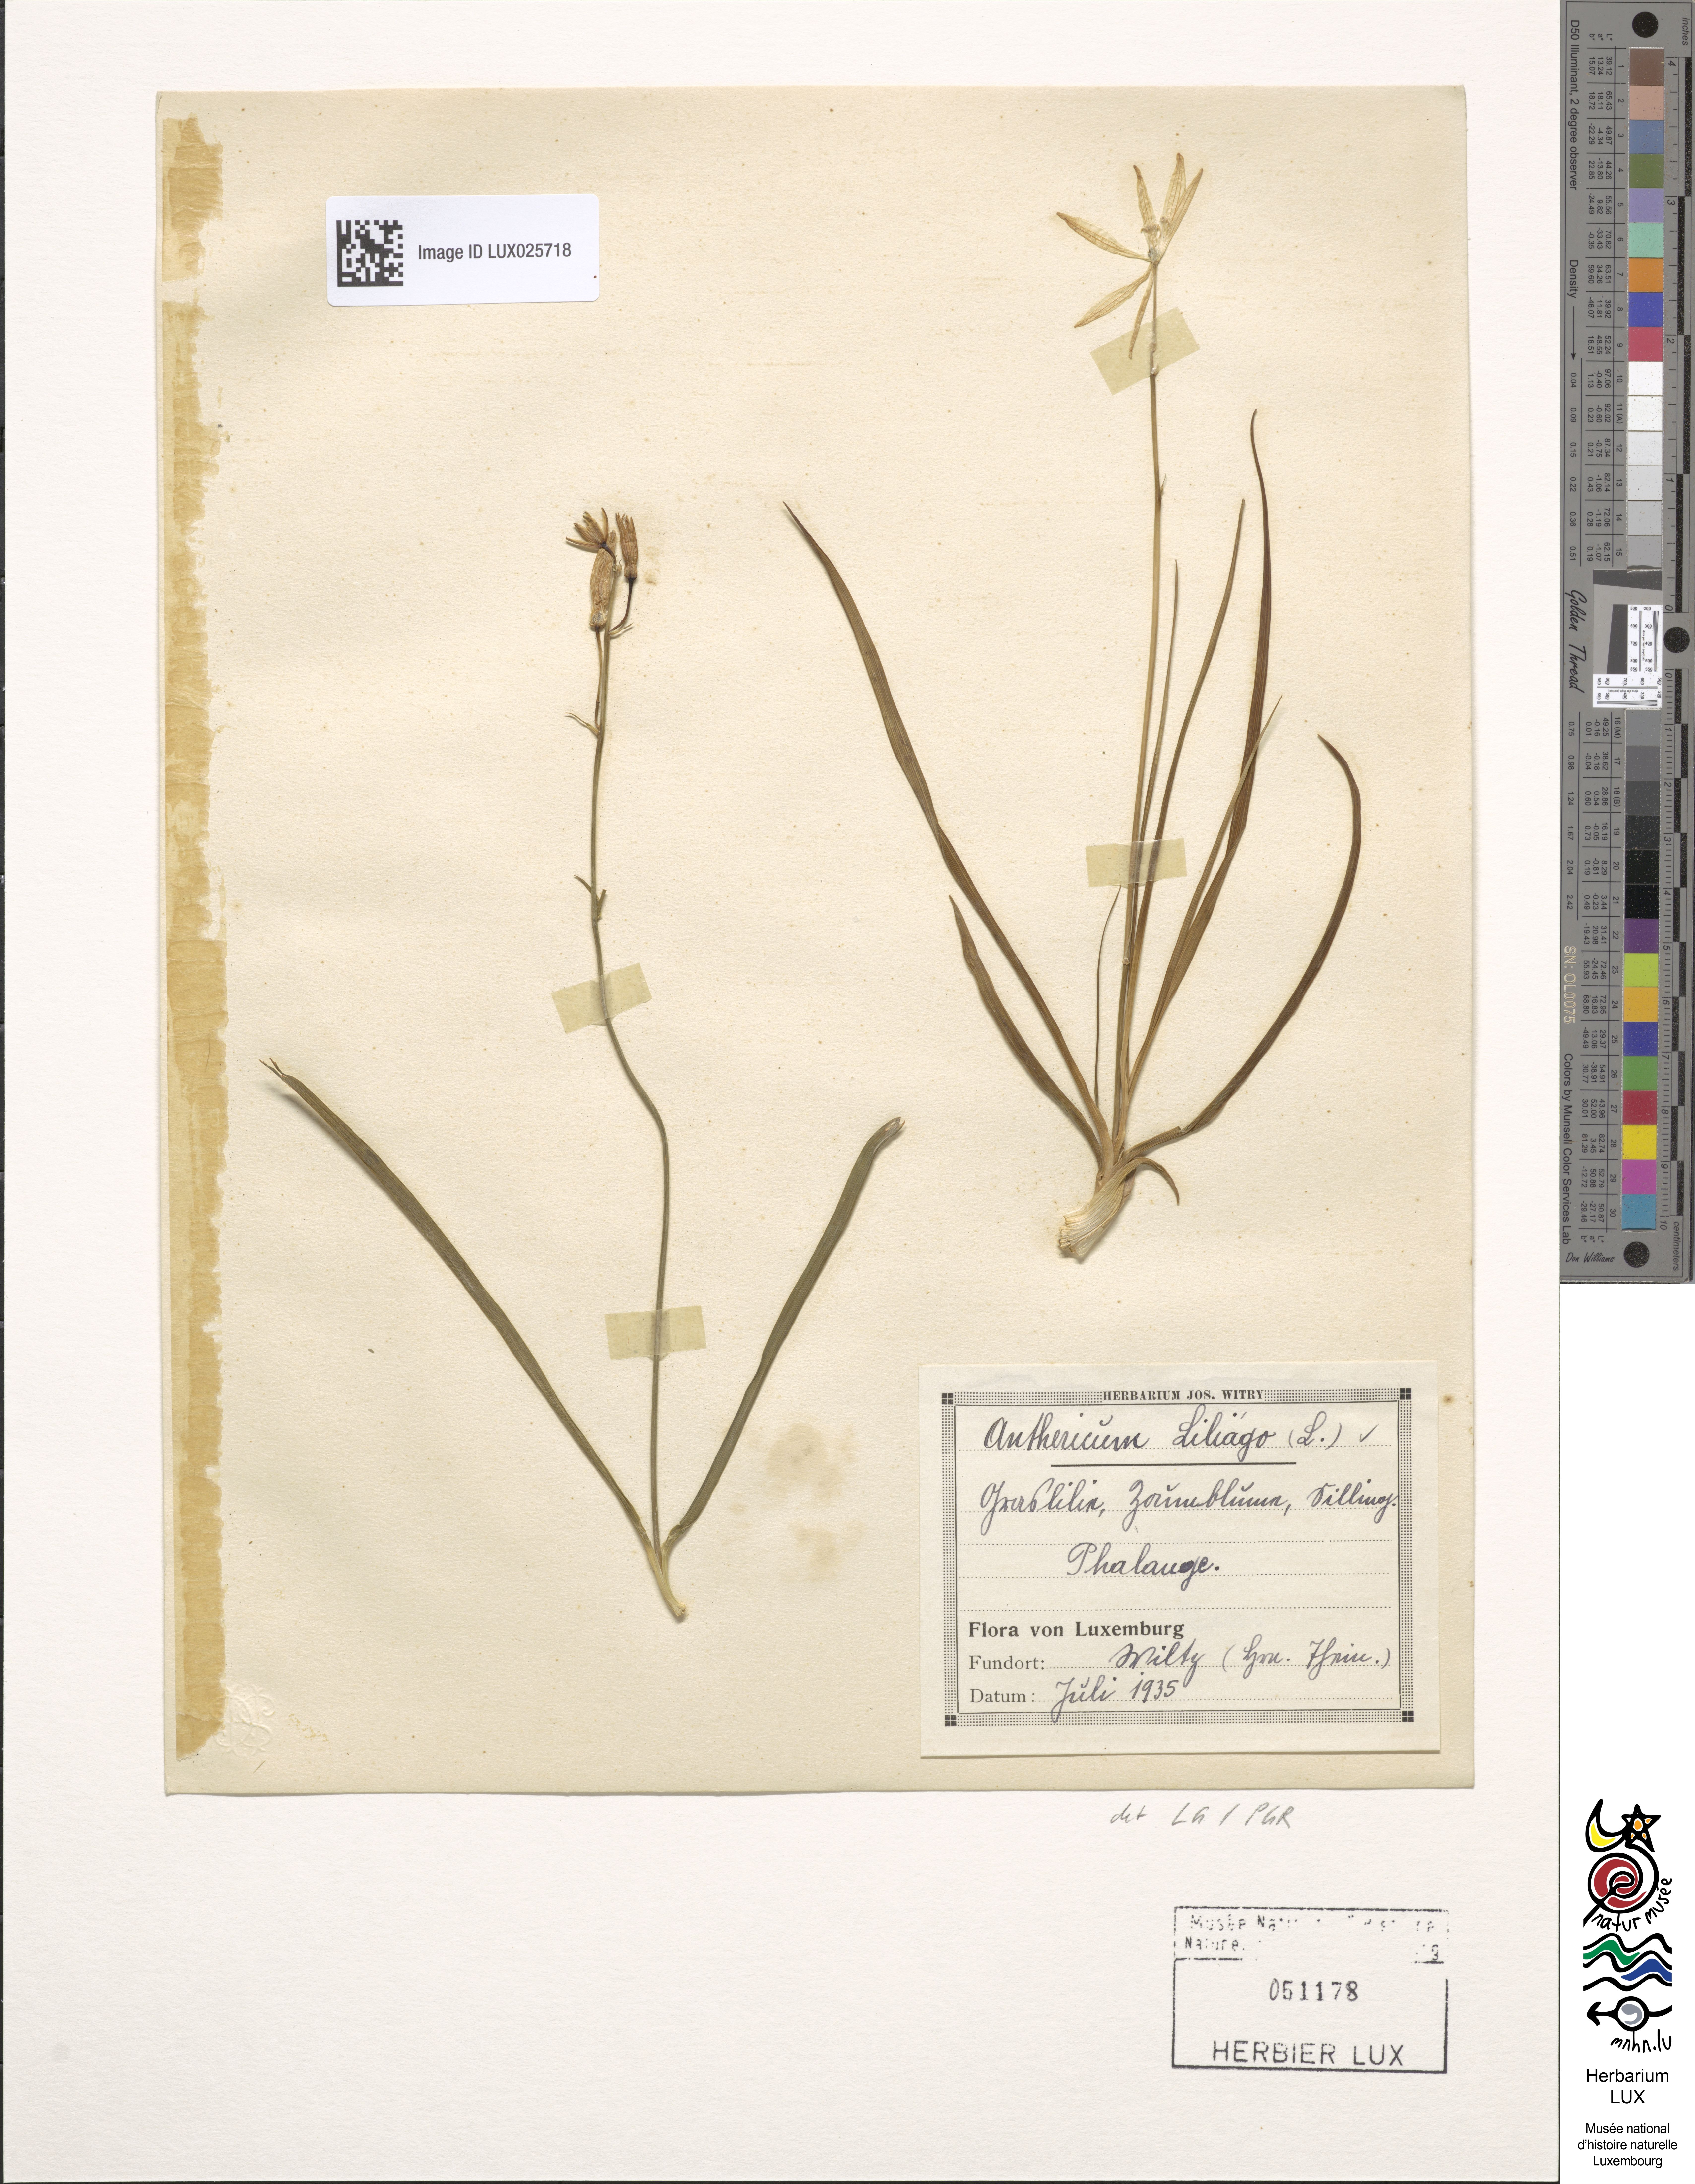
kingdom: Plantae
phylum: Tracheophyta
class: Liliopsida
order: Asparagales
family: Asparagaceae
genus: Anthericum
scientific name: Anthericum liliago
